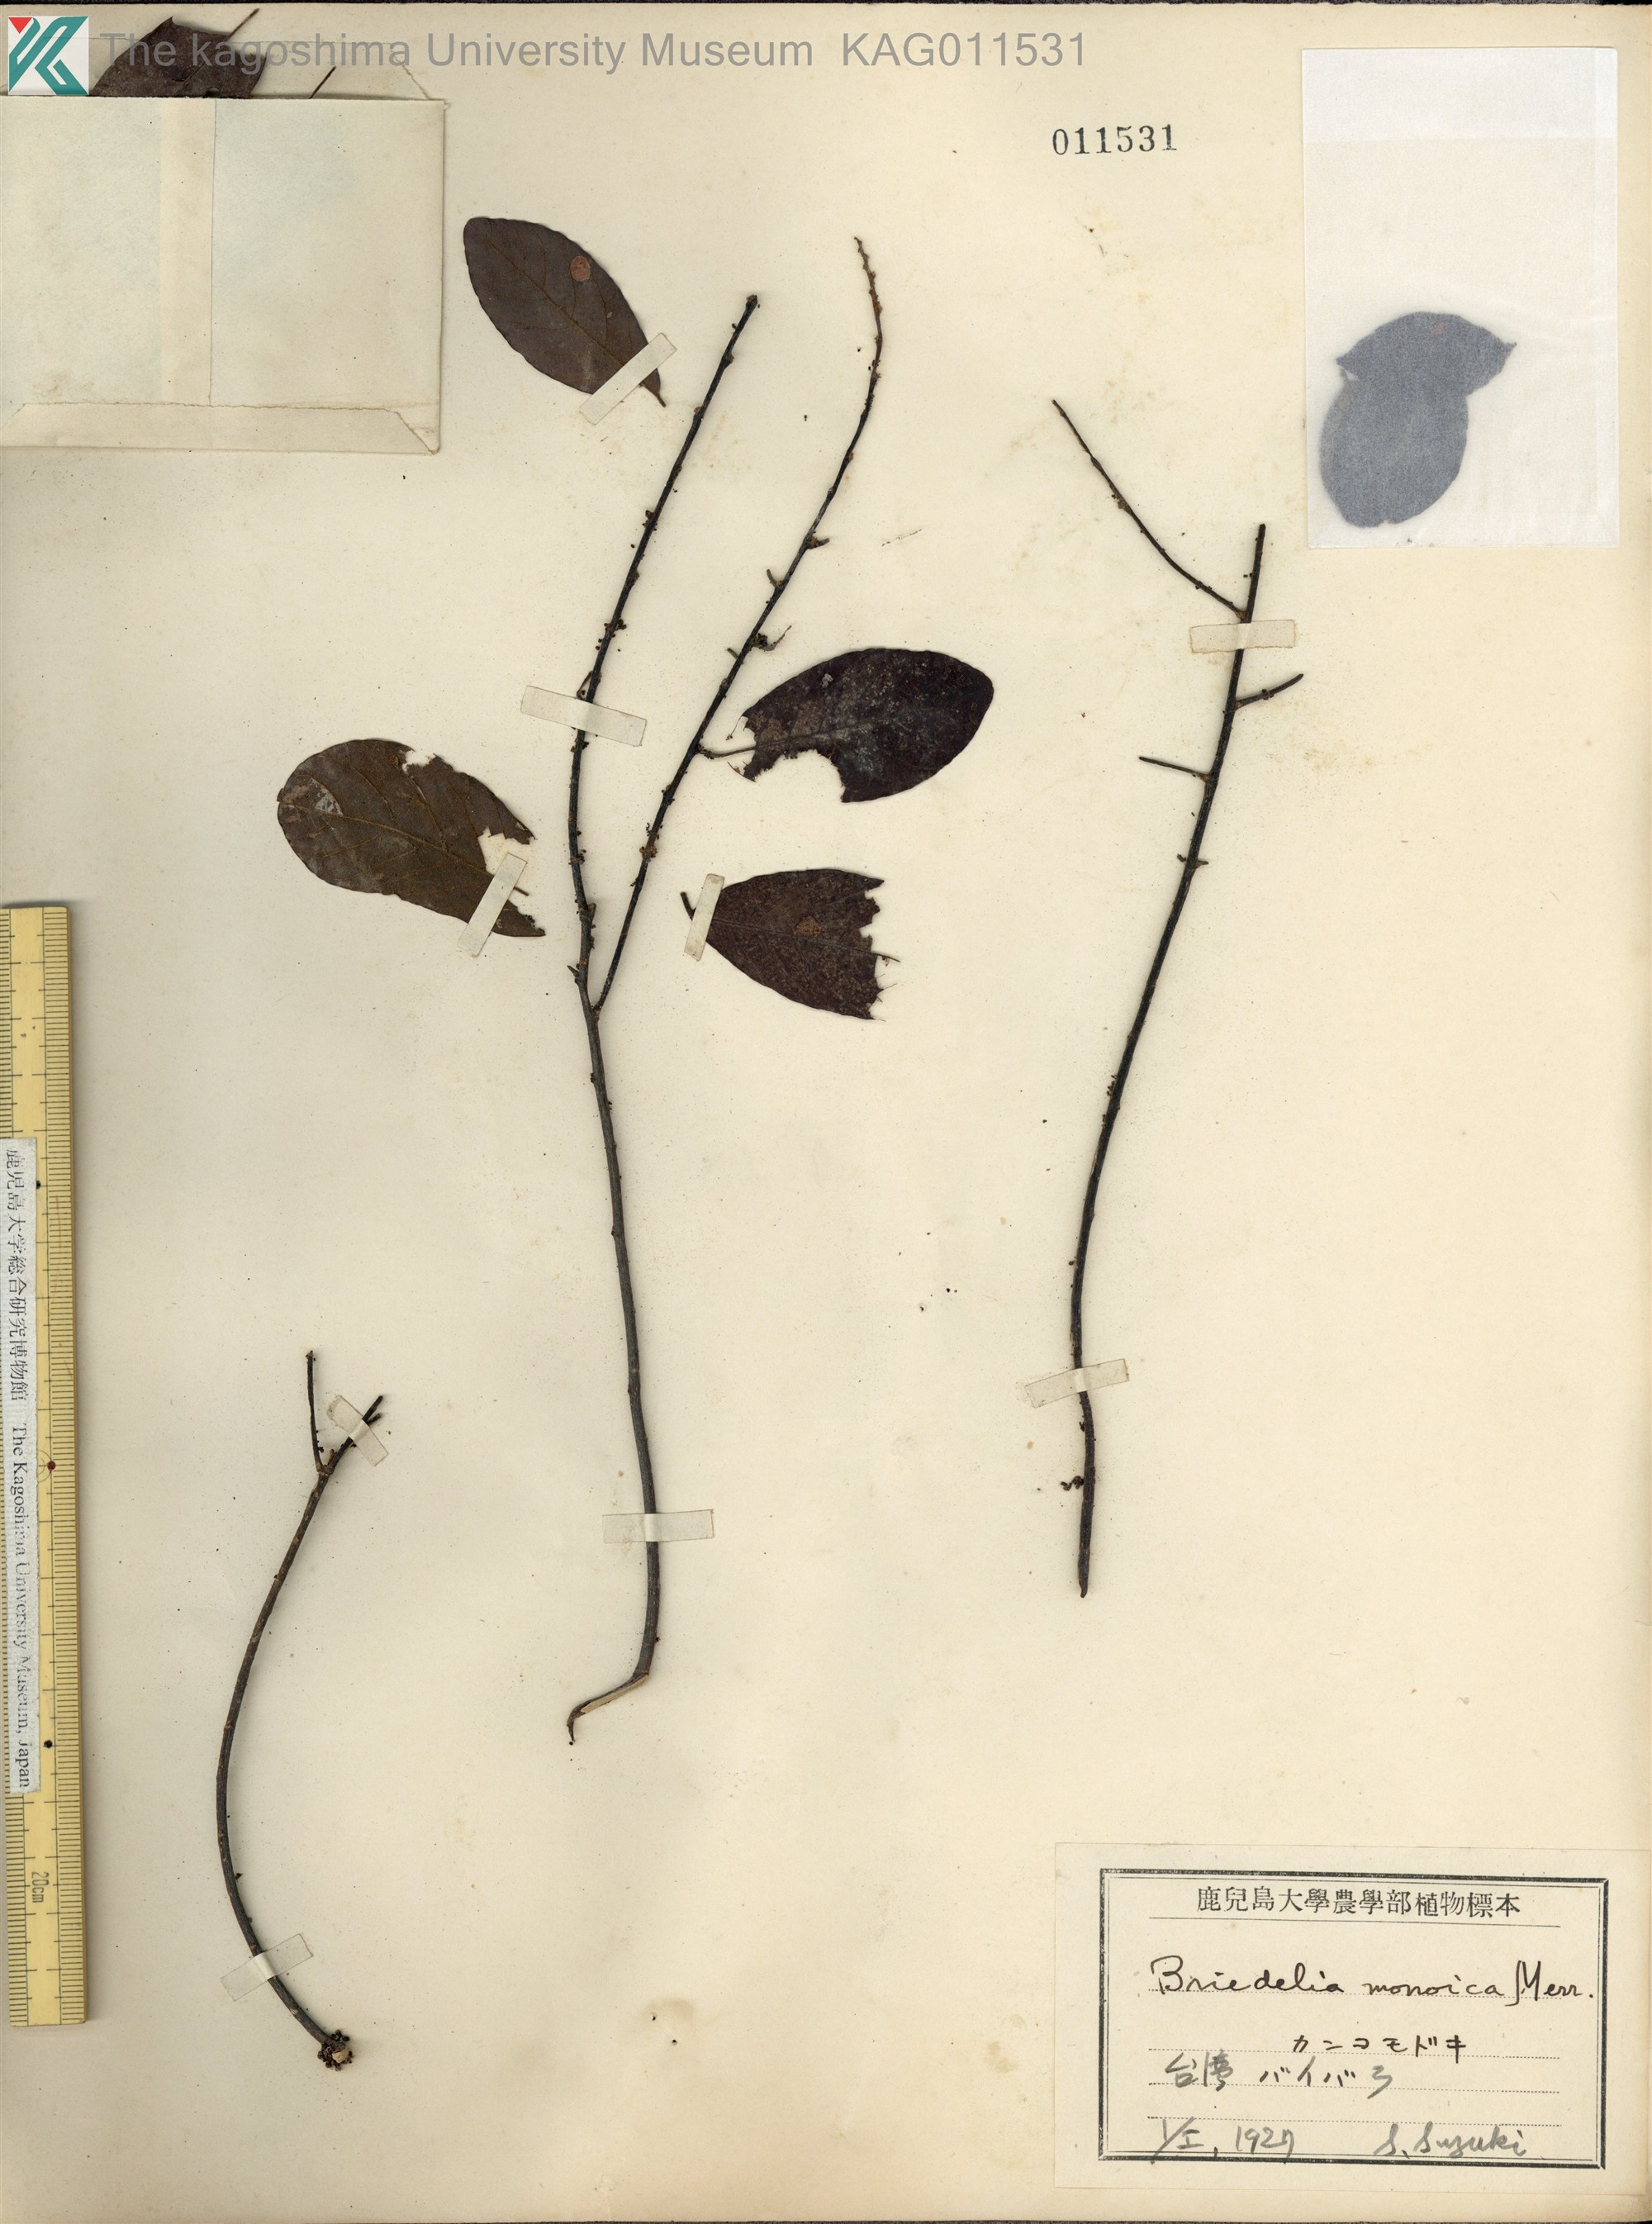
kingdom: Plantae
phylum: Tracheophyta
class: Magnoliopsida
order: Malpighiales
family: Phyllanthaceae
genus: Cleistanthus
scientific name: Cleistanthus monoicus
